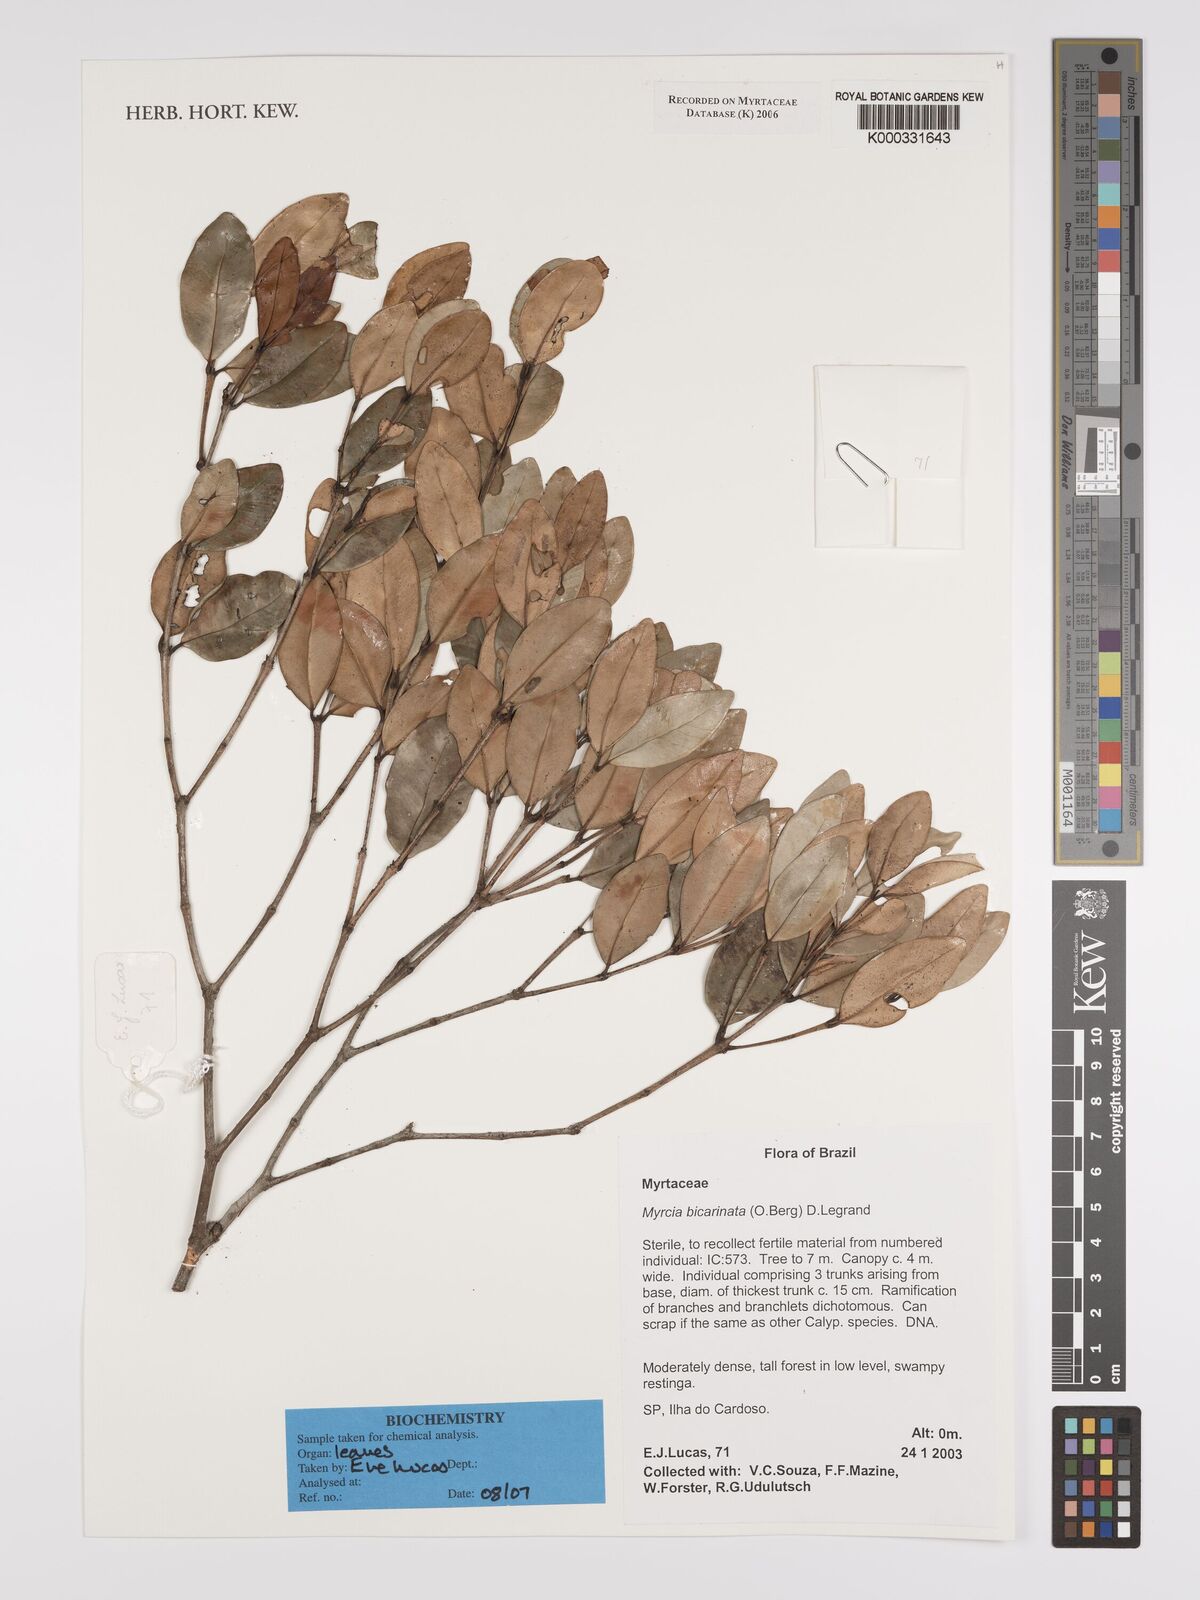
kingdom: Plantae
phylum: Tracheophyta
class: Magnoliopsida
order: Myrtales
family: Myrtaceae
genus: Myrcia
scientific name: Myrcia bicarinata
